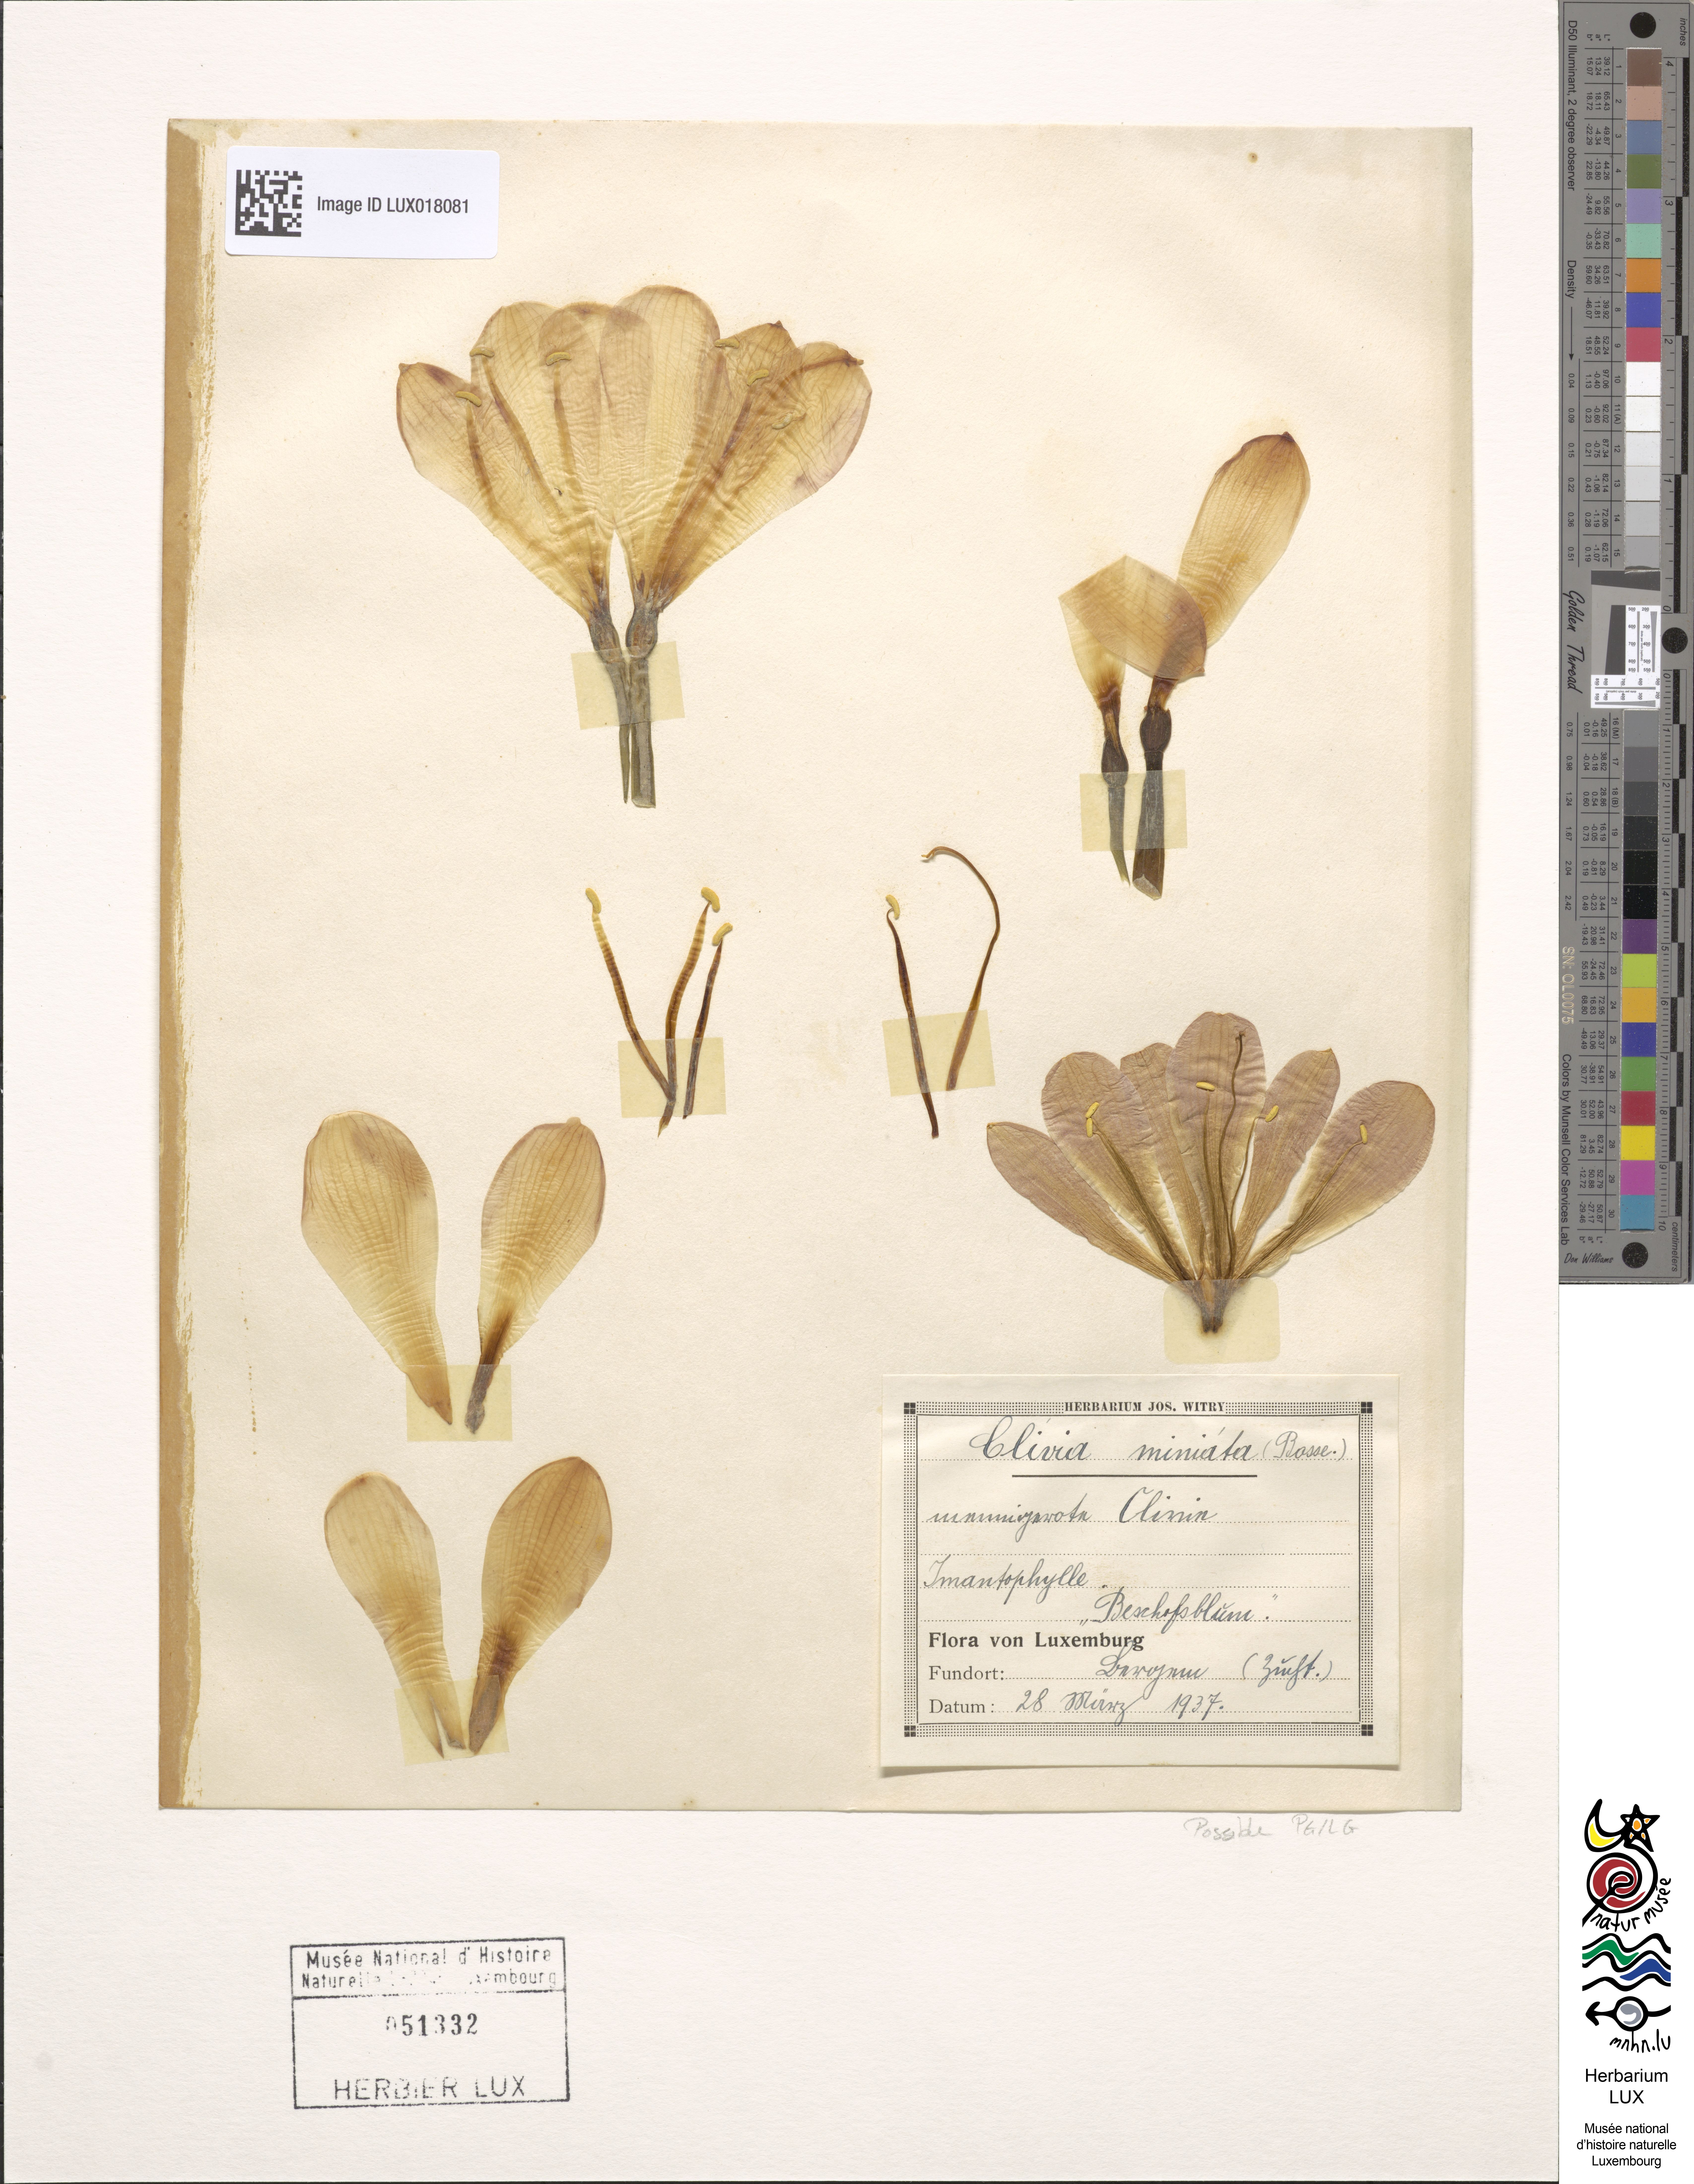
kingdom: Plantae
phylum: Tracheophyta
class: Liliopsida
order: Asparagales
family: Amaryllidaceae
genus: Clivia
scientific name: Clivia
